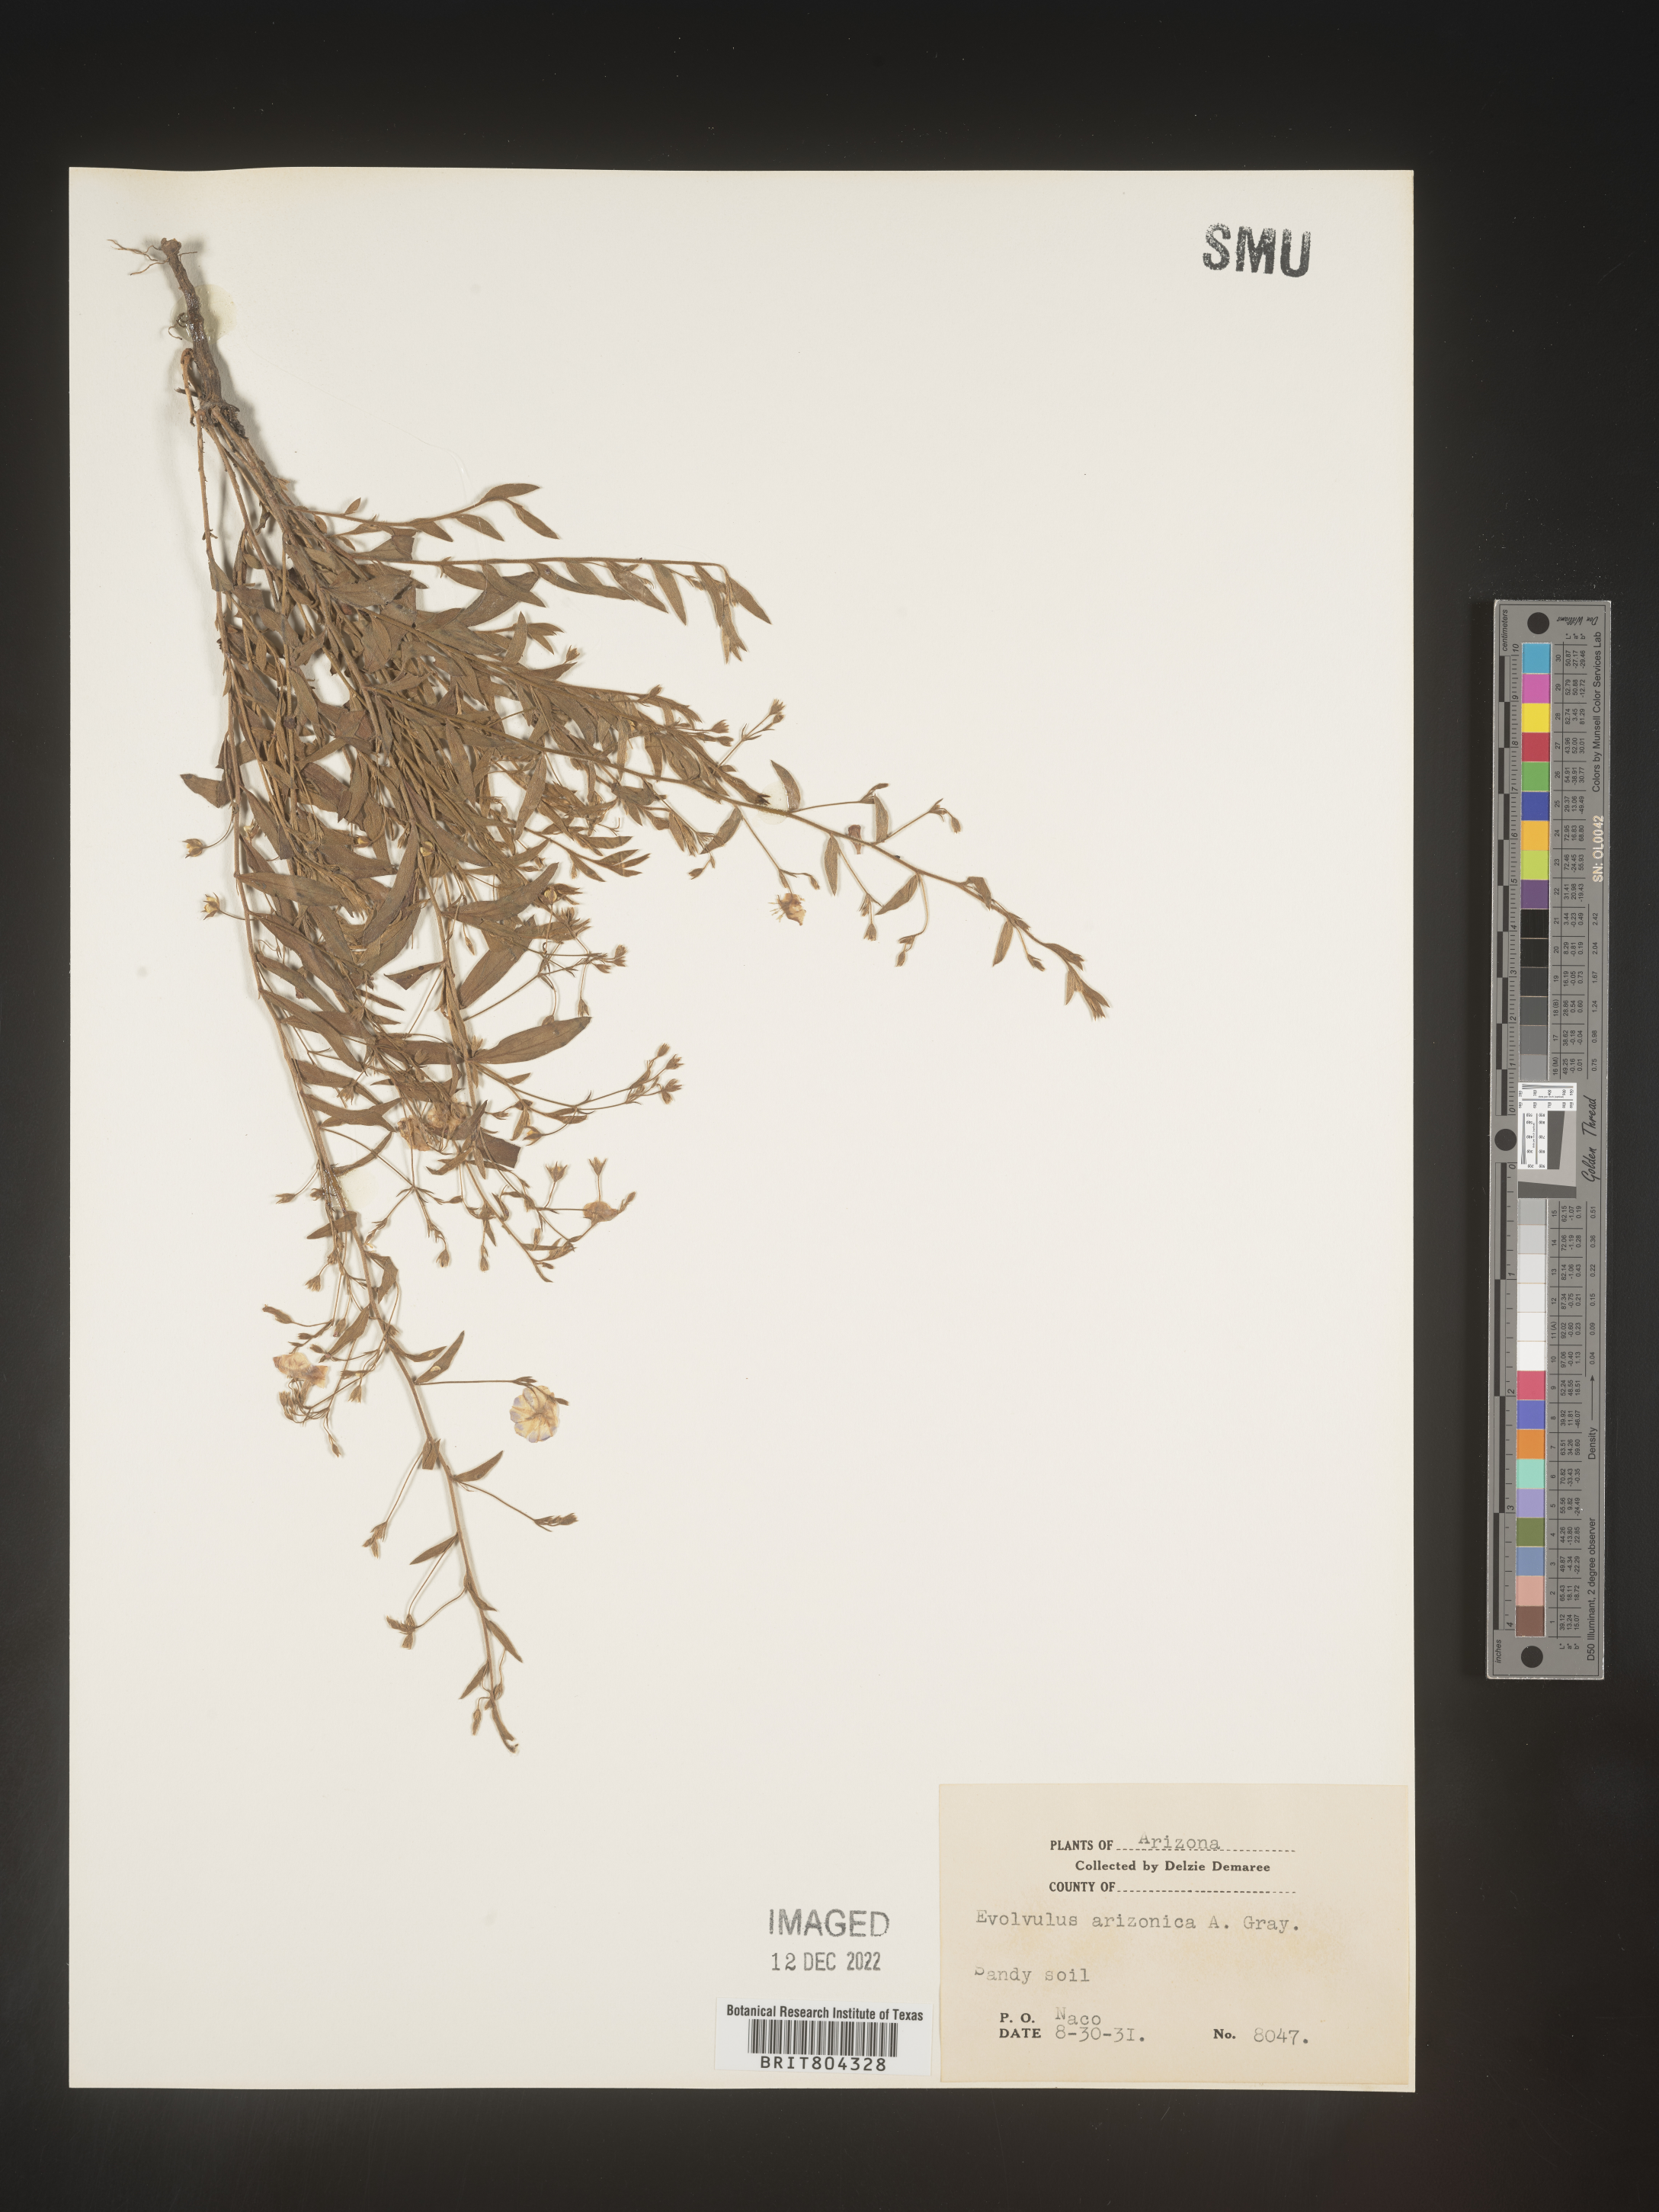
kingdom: Plantae
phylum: Tracheophyta
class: Magnoliopsida
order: Solanales
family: Convolvulaceae
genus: Evolvulus
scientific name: Evolvulus arizonicus
